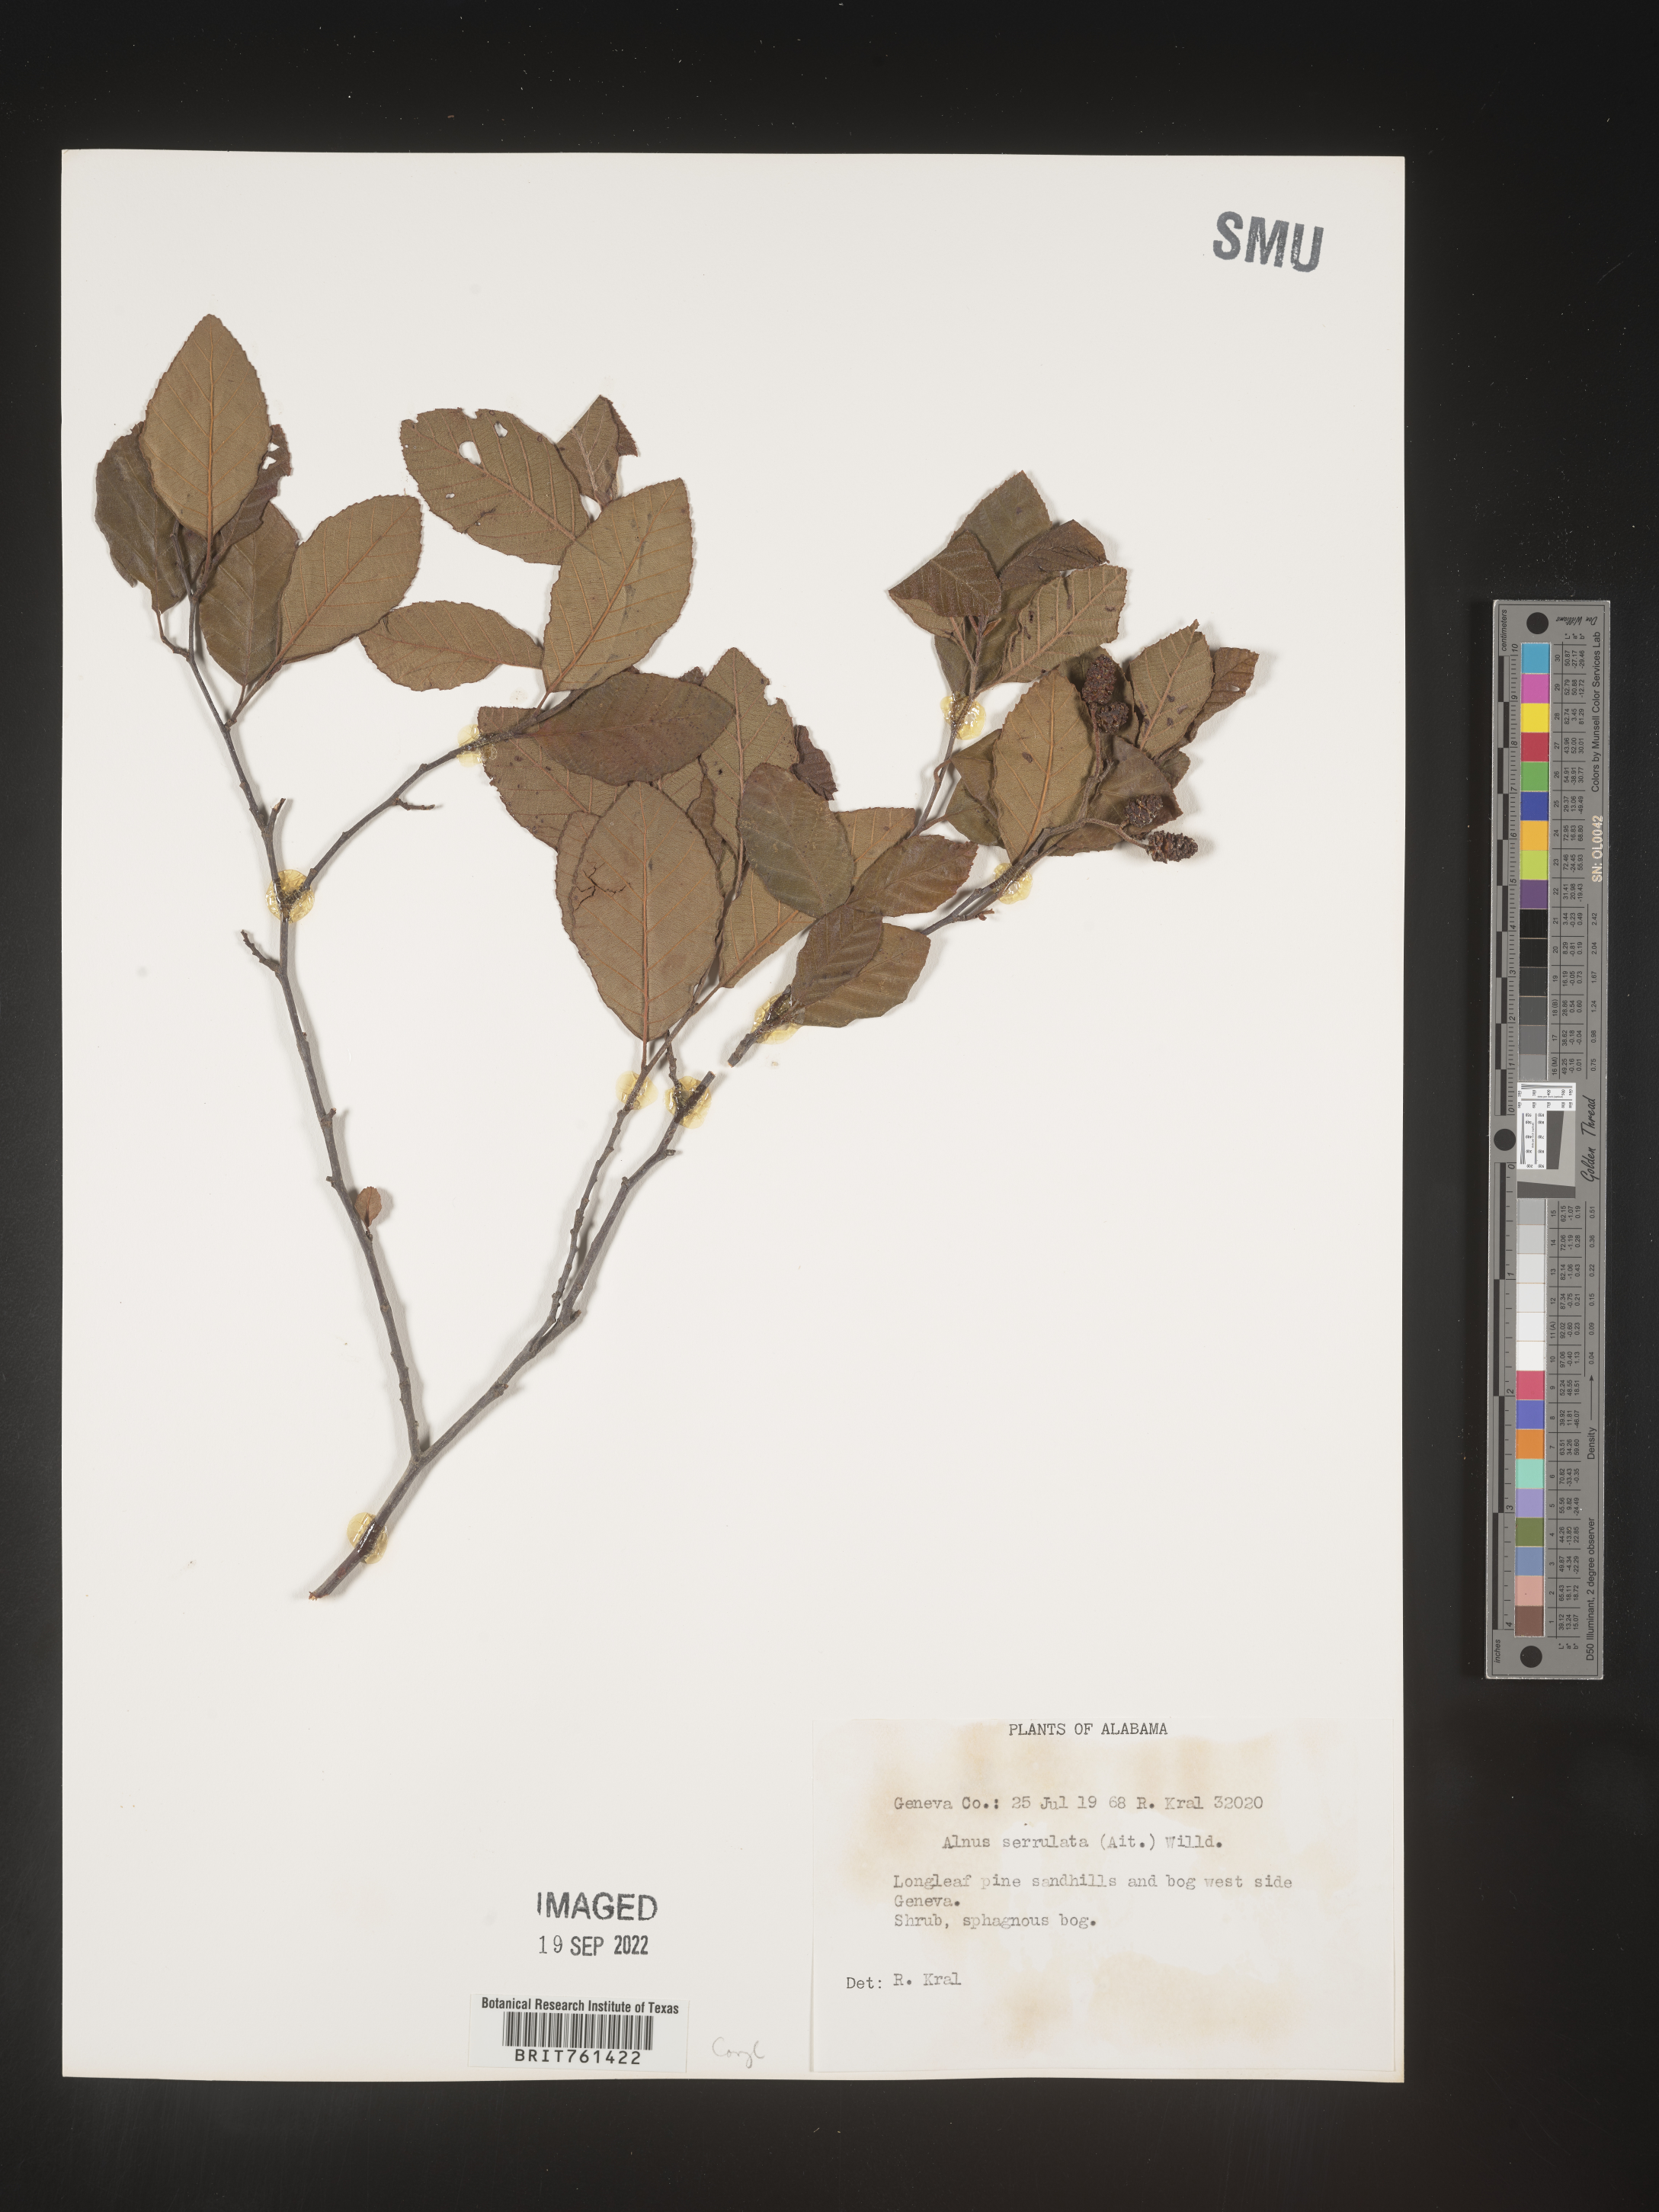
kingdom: Plantae
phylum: Tracheophyta
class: Magnoliopsida
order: Fagales
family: Betulaceae
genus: Alnus
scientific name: Alnus serrulata
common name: Hazel alder
